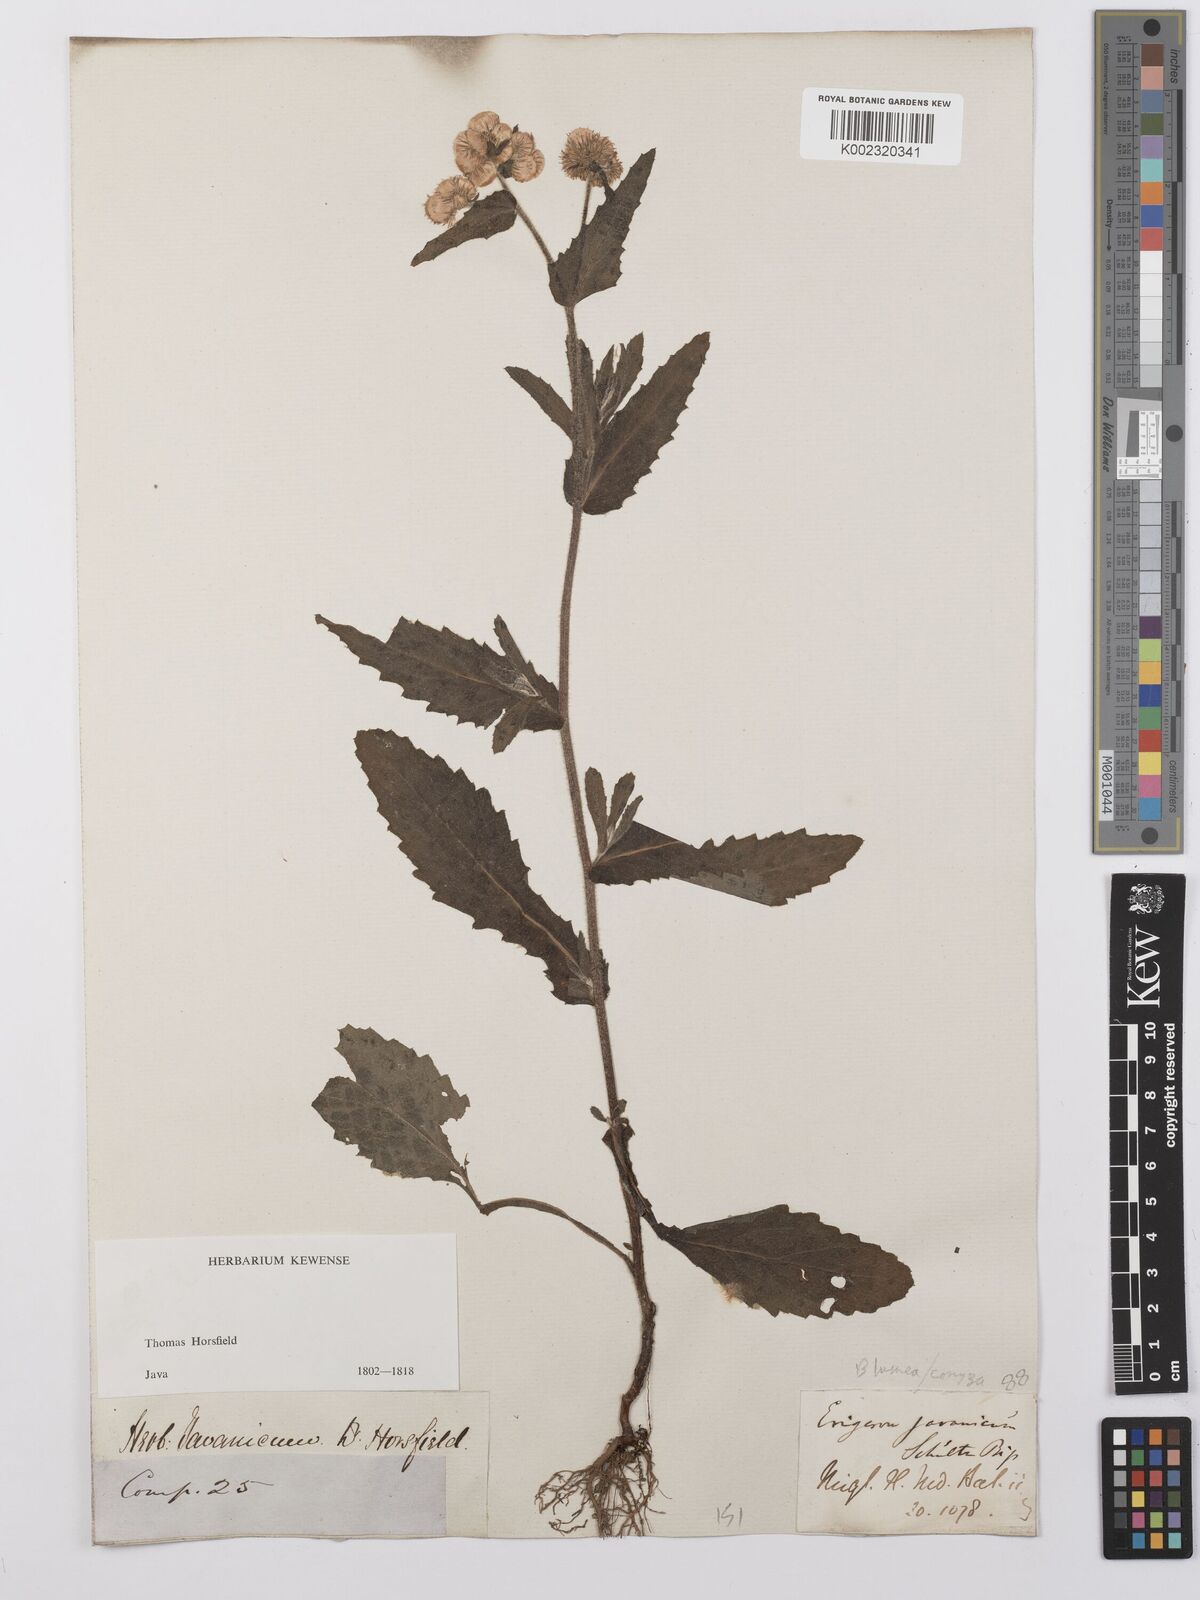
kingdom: Plantae
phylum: Tracheophyta
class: Magnoliopsida
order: Asterales
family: Asteraceae
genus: Conyza
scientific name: Conyza
